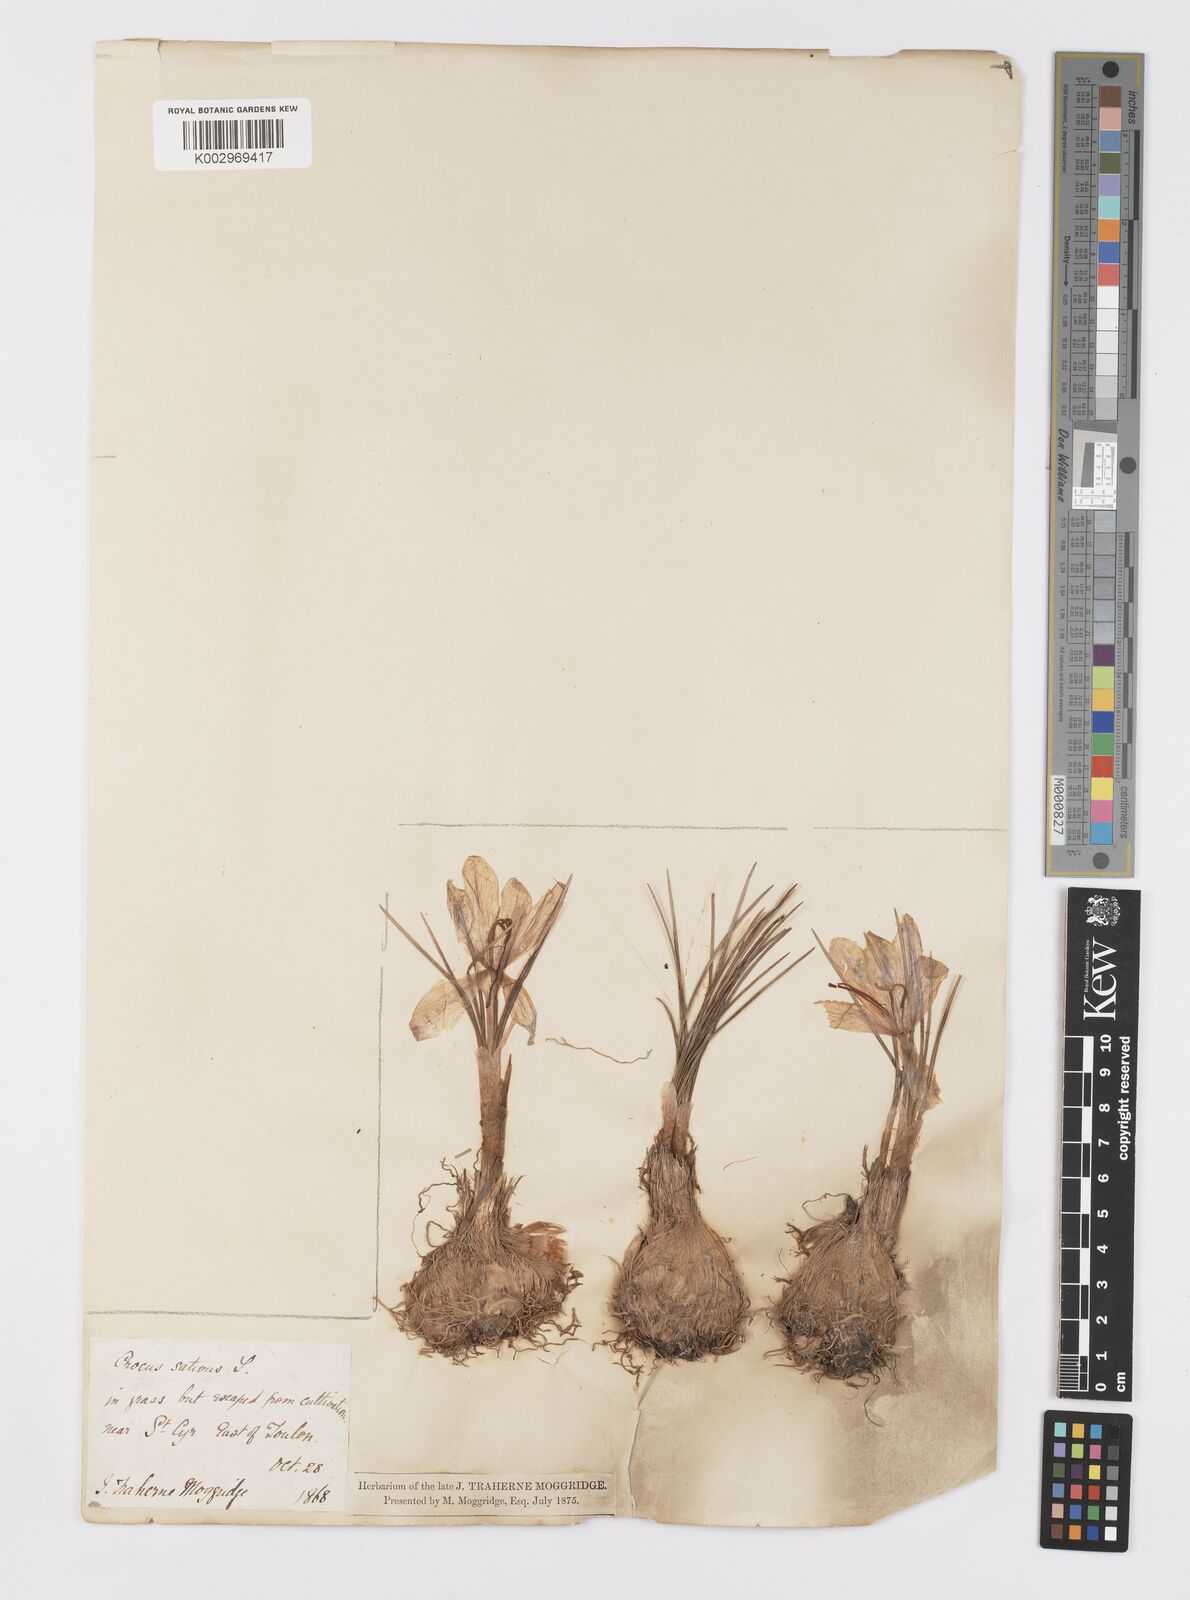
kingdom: Plantae
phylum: Tracheophyta
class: Liliopsida
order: Asparagales
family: Iridaceae
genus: Crocus
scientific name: Crocus sativus
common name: Saffron crocus
